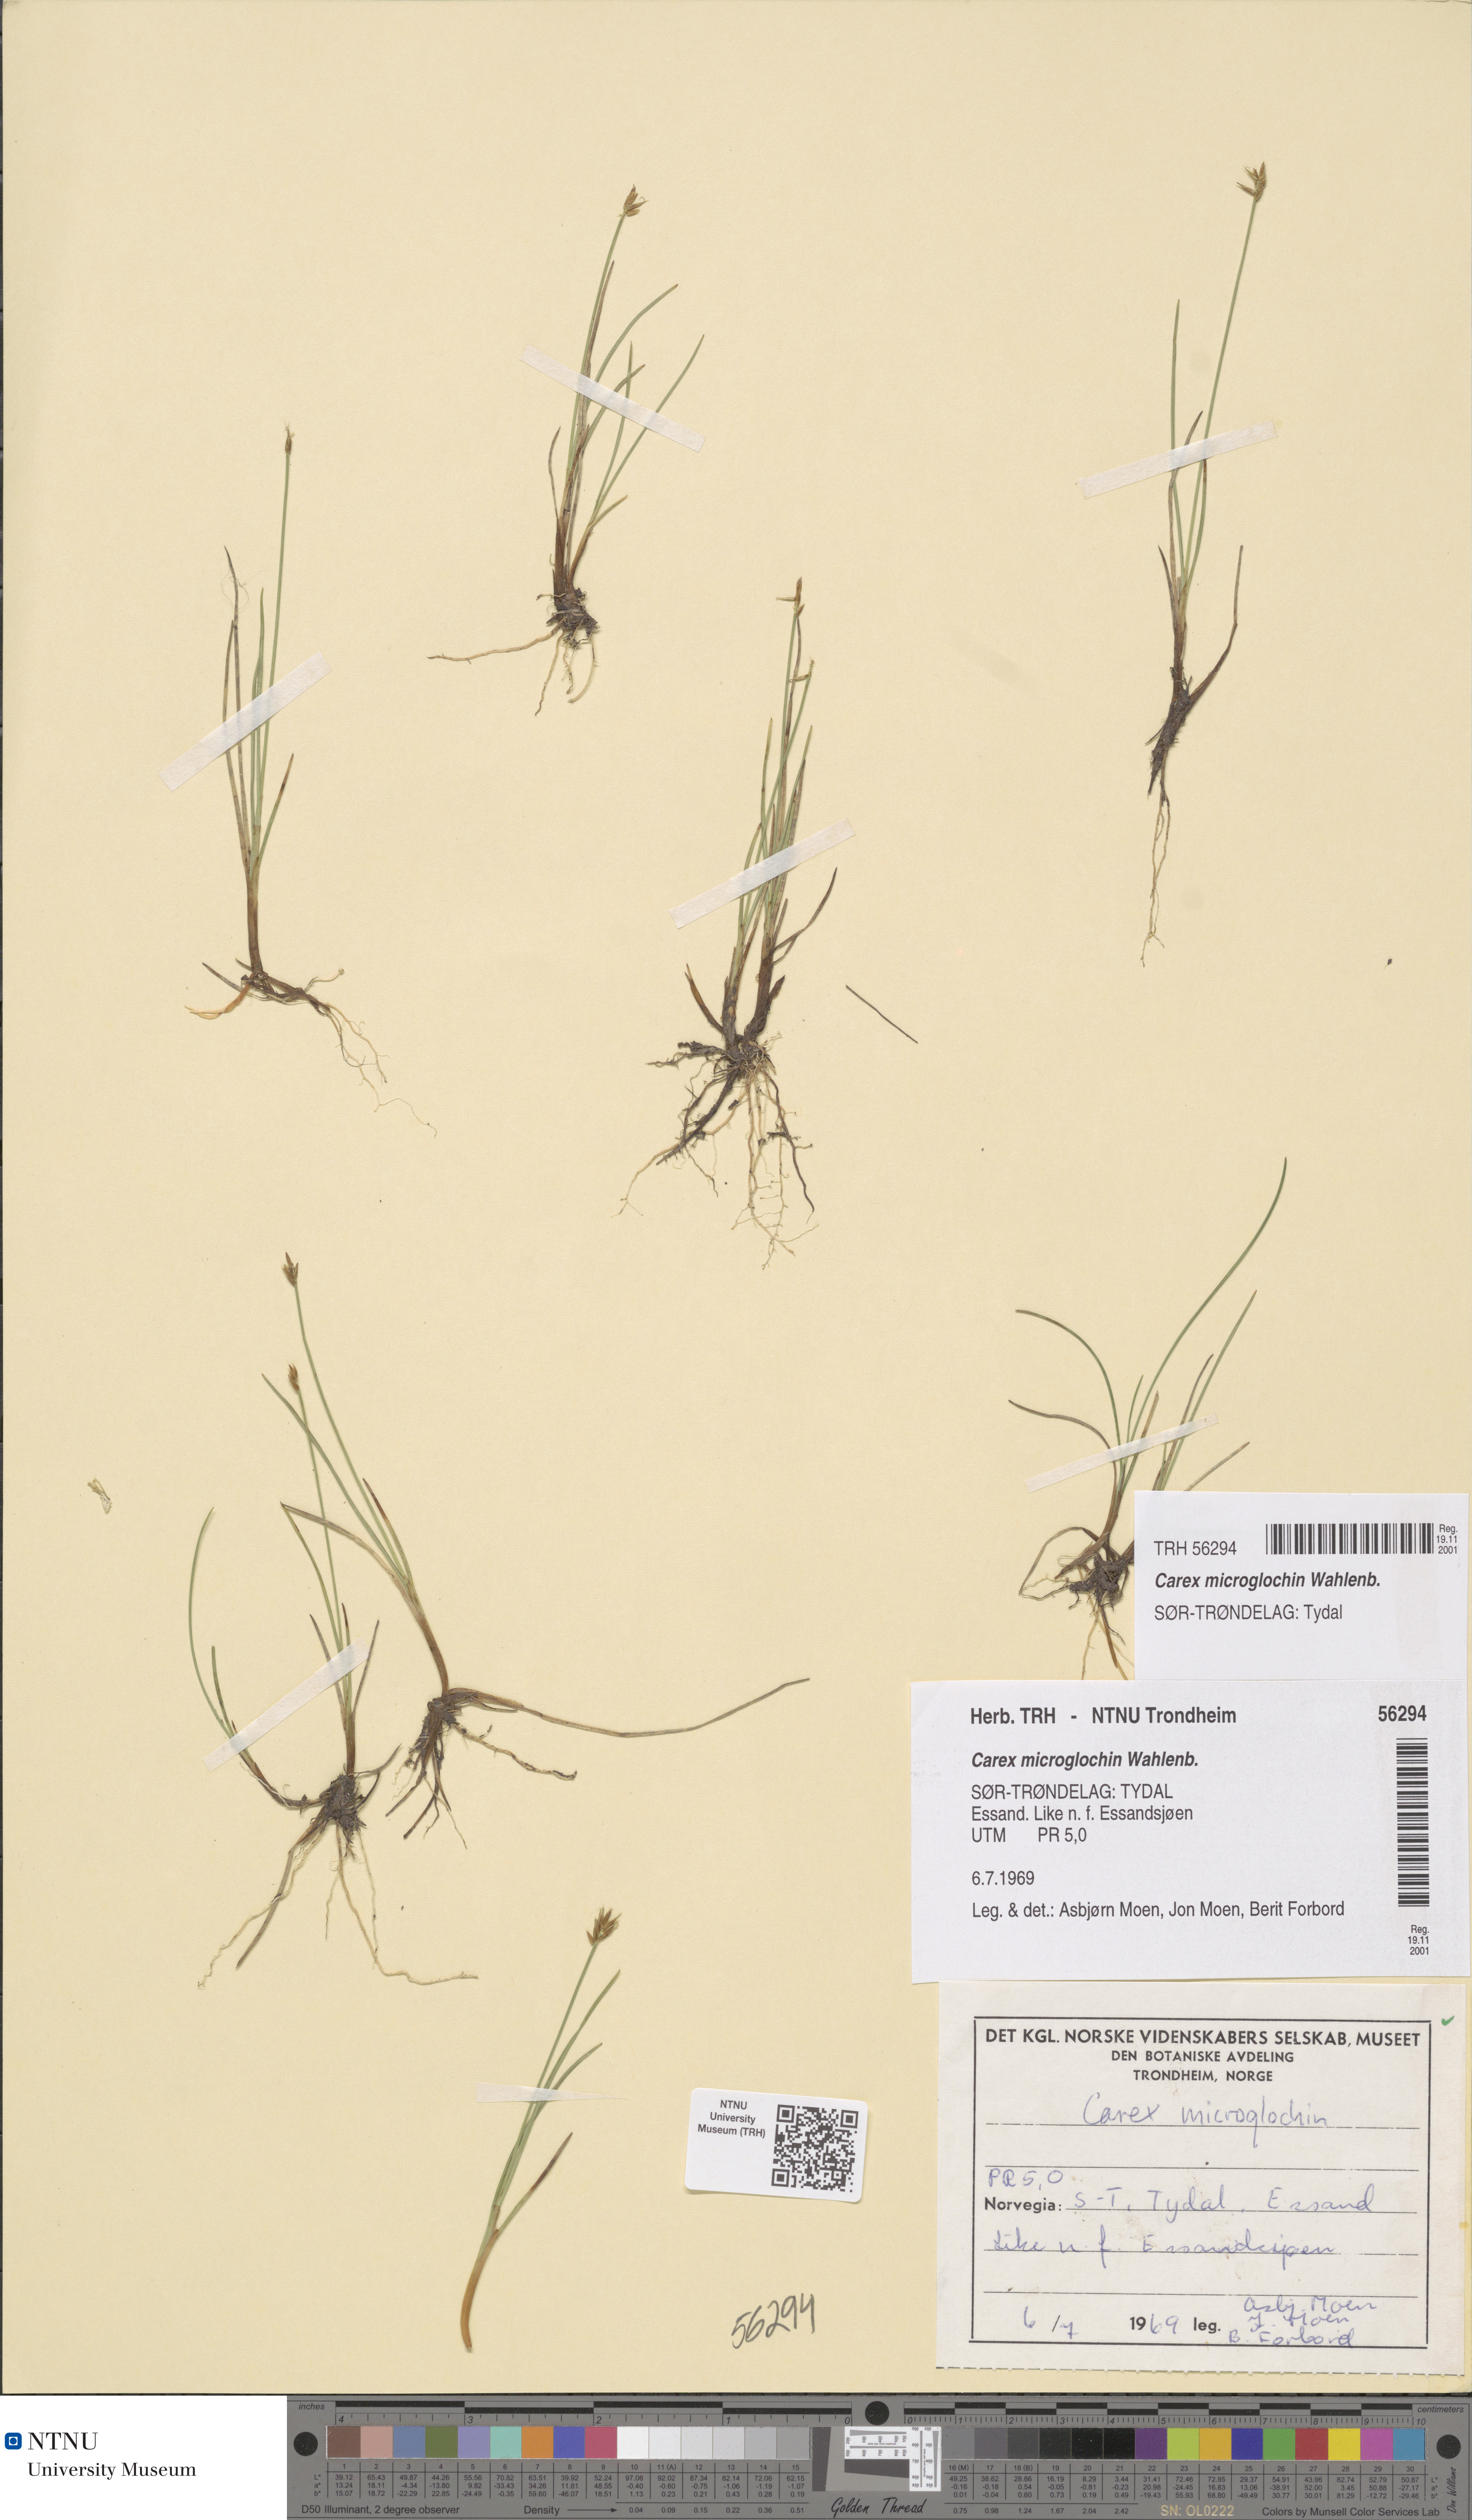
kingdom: Plantae
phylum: Tracheophyta
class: Liliopsida
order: Poales
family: Cyperaceae
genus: Carex
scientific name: Carex microglochin
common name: Bristle sedge
